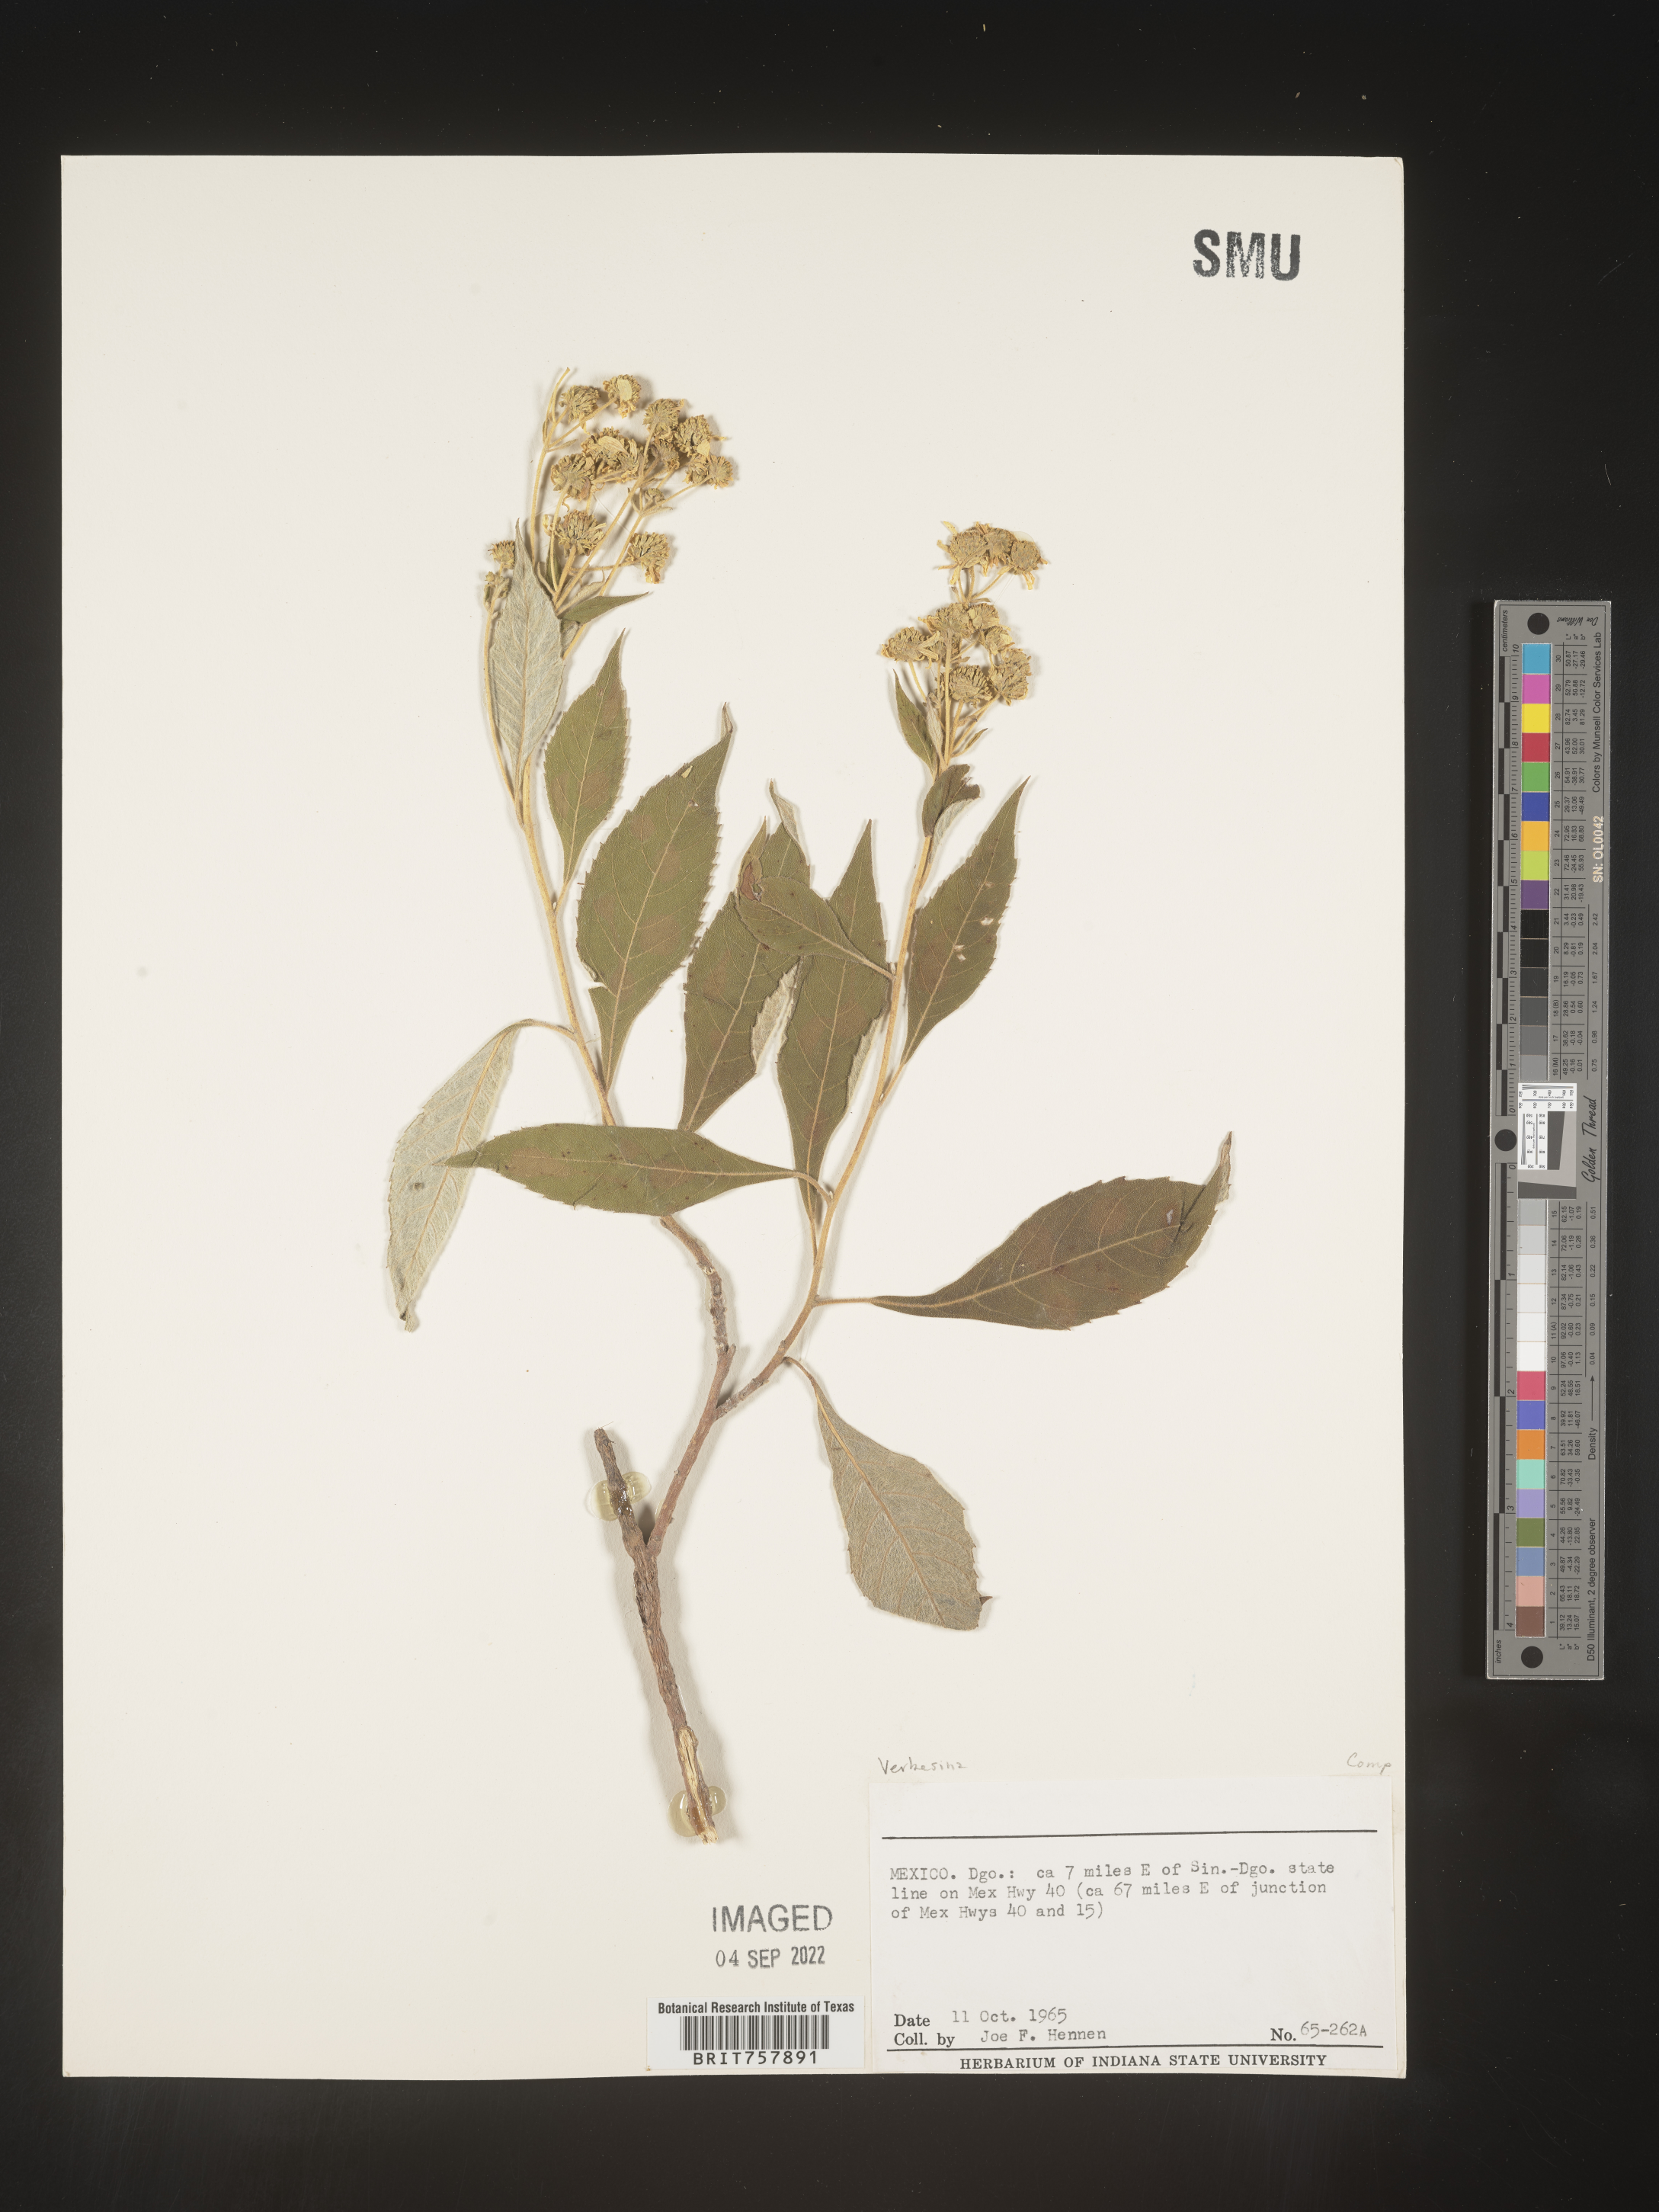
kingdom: Plantae
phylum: Tracheophyta
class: Magnoliopsida
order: Asterales
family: Asteraceae
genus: Verbesina
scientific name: Verbesina
